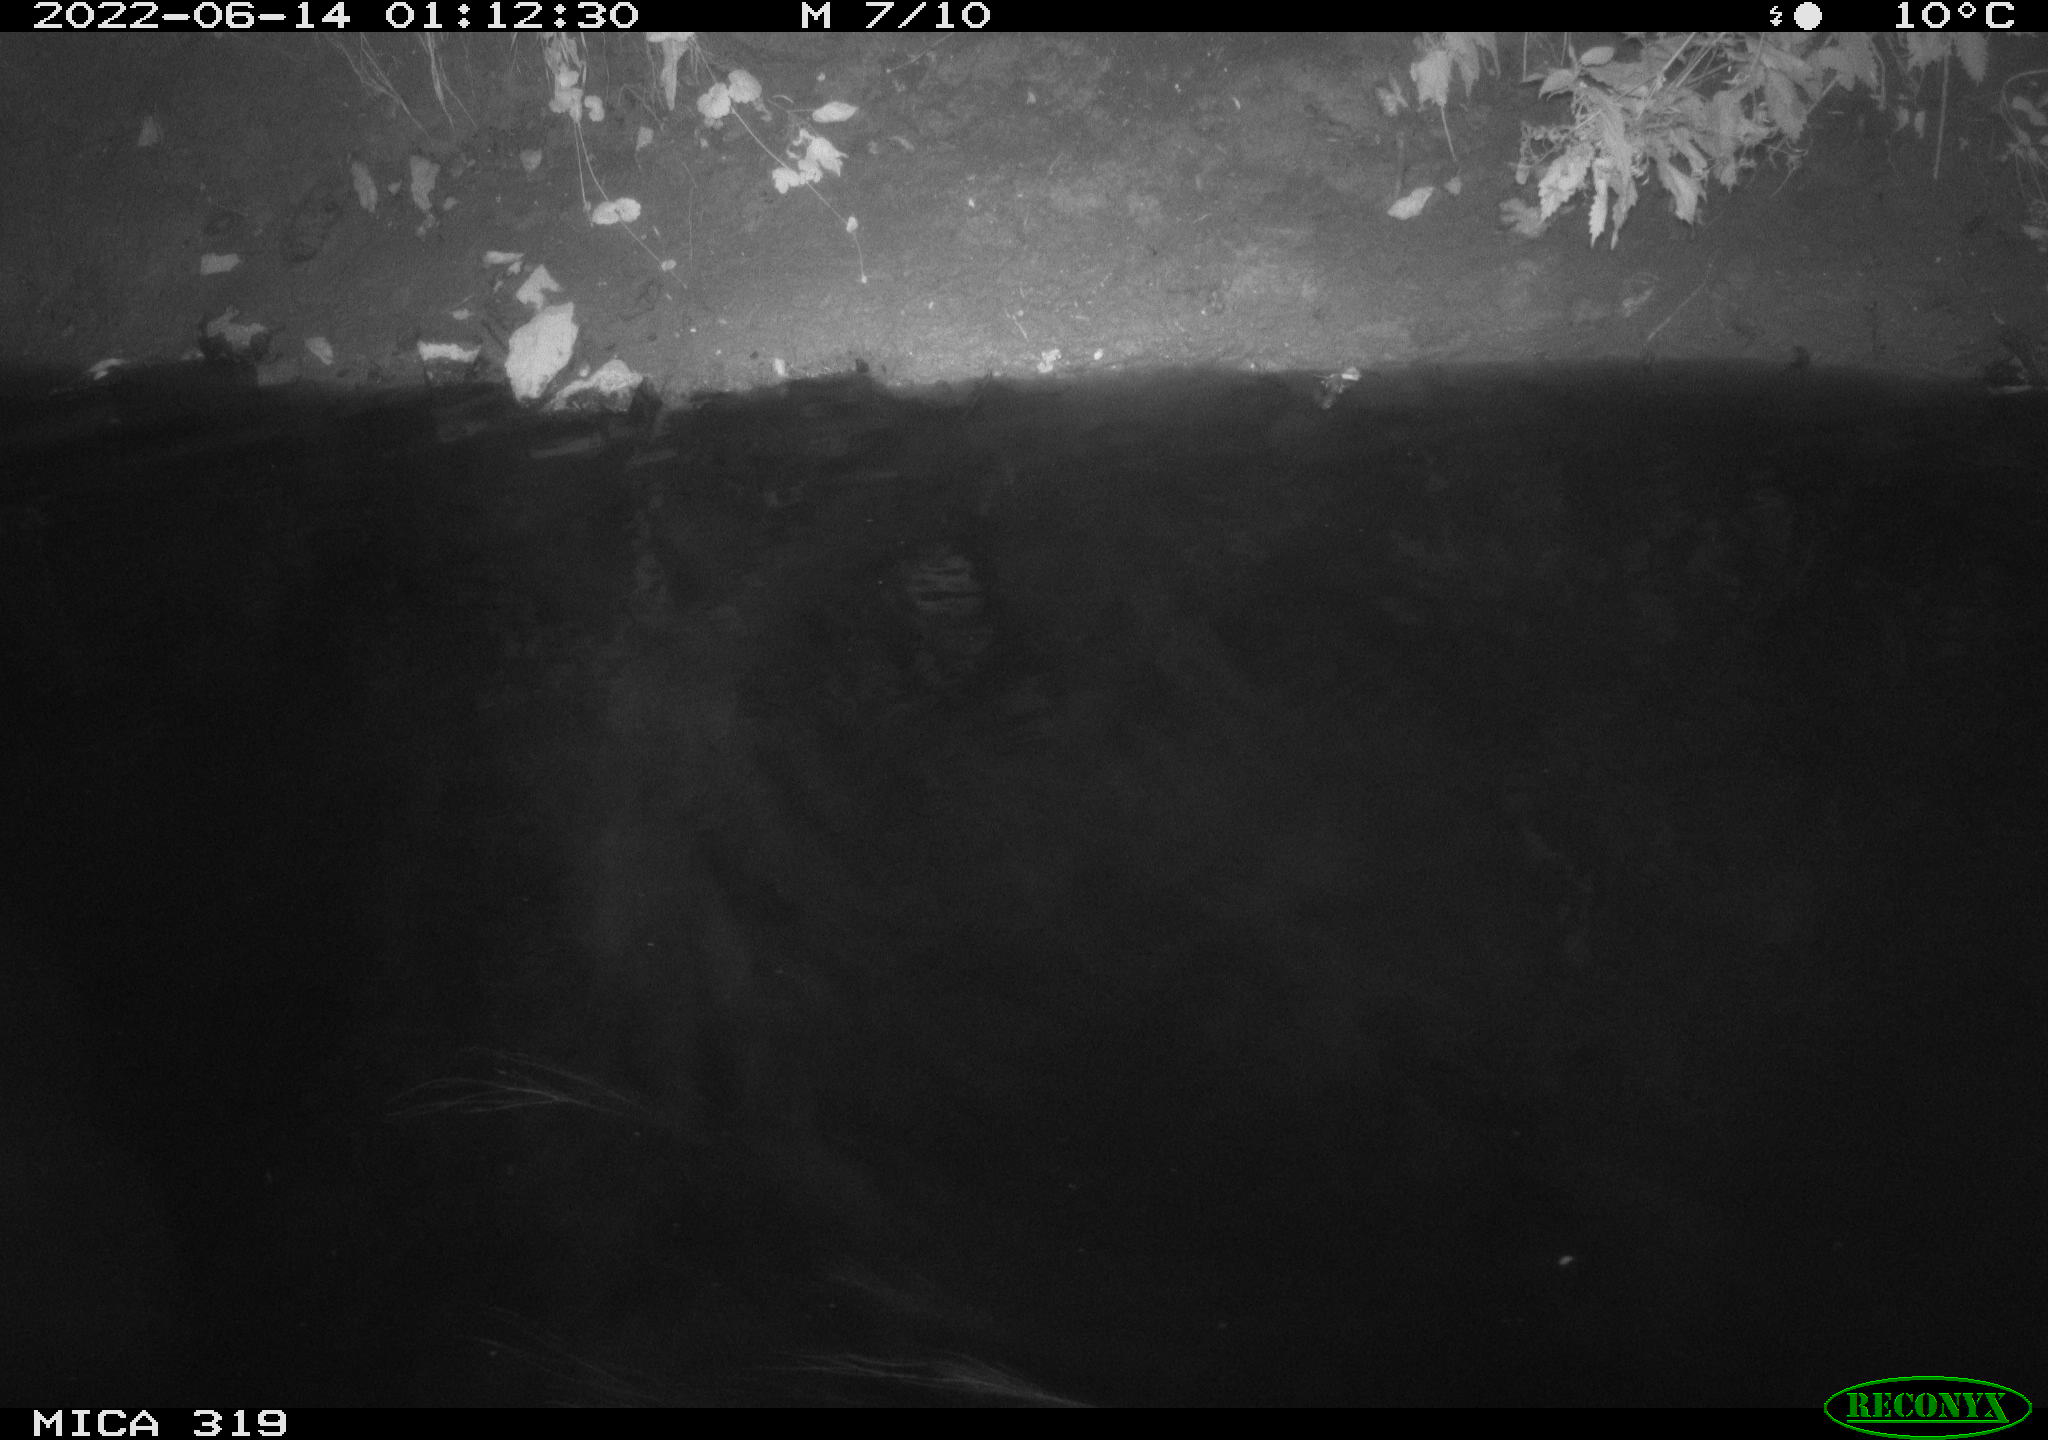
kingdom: Animalia
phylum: Chordata
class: Aves
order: Anseriformes
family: Anatidae
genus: Anas
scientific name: Anas
